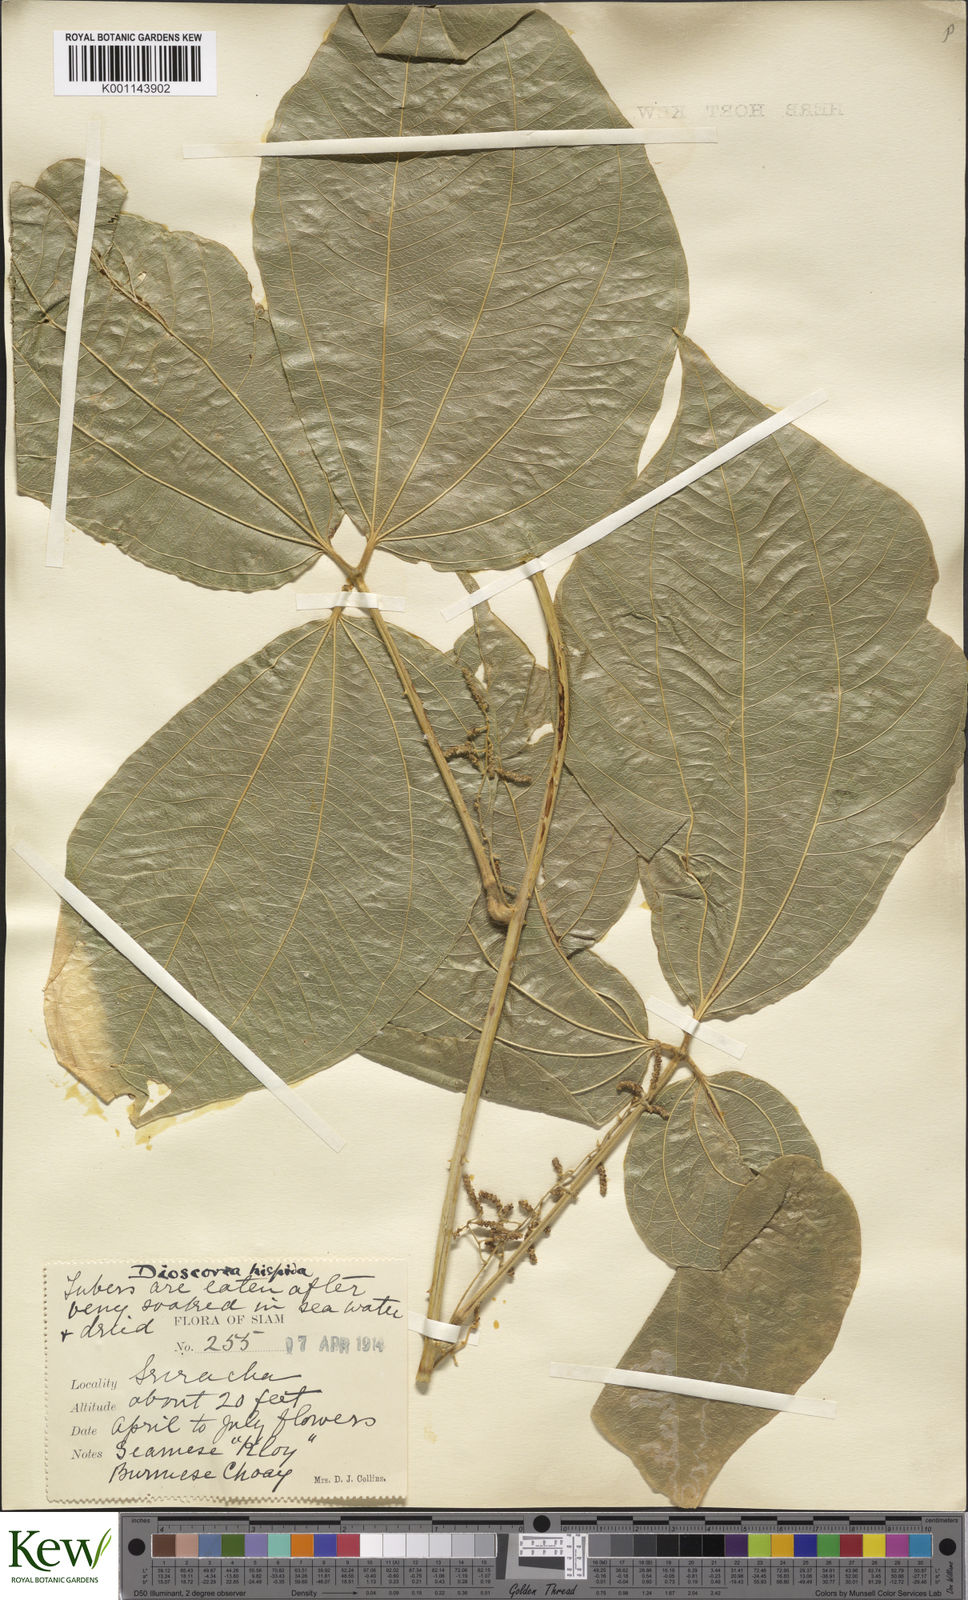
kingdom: Plantae
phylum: Tracheophyta
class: Liliopsida
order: Dioscoreales
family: Dioscoreaceae
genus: Dioscorea
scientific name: Dioscorea hispida
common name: Asiatic bitter yam
